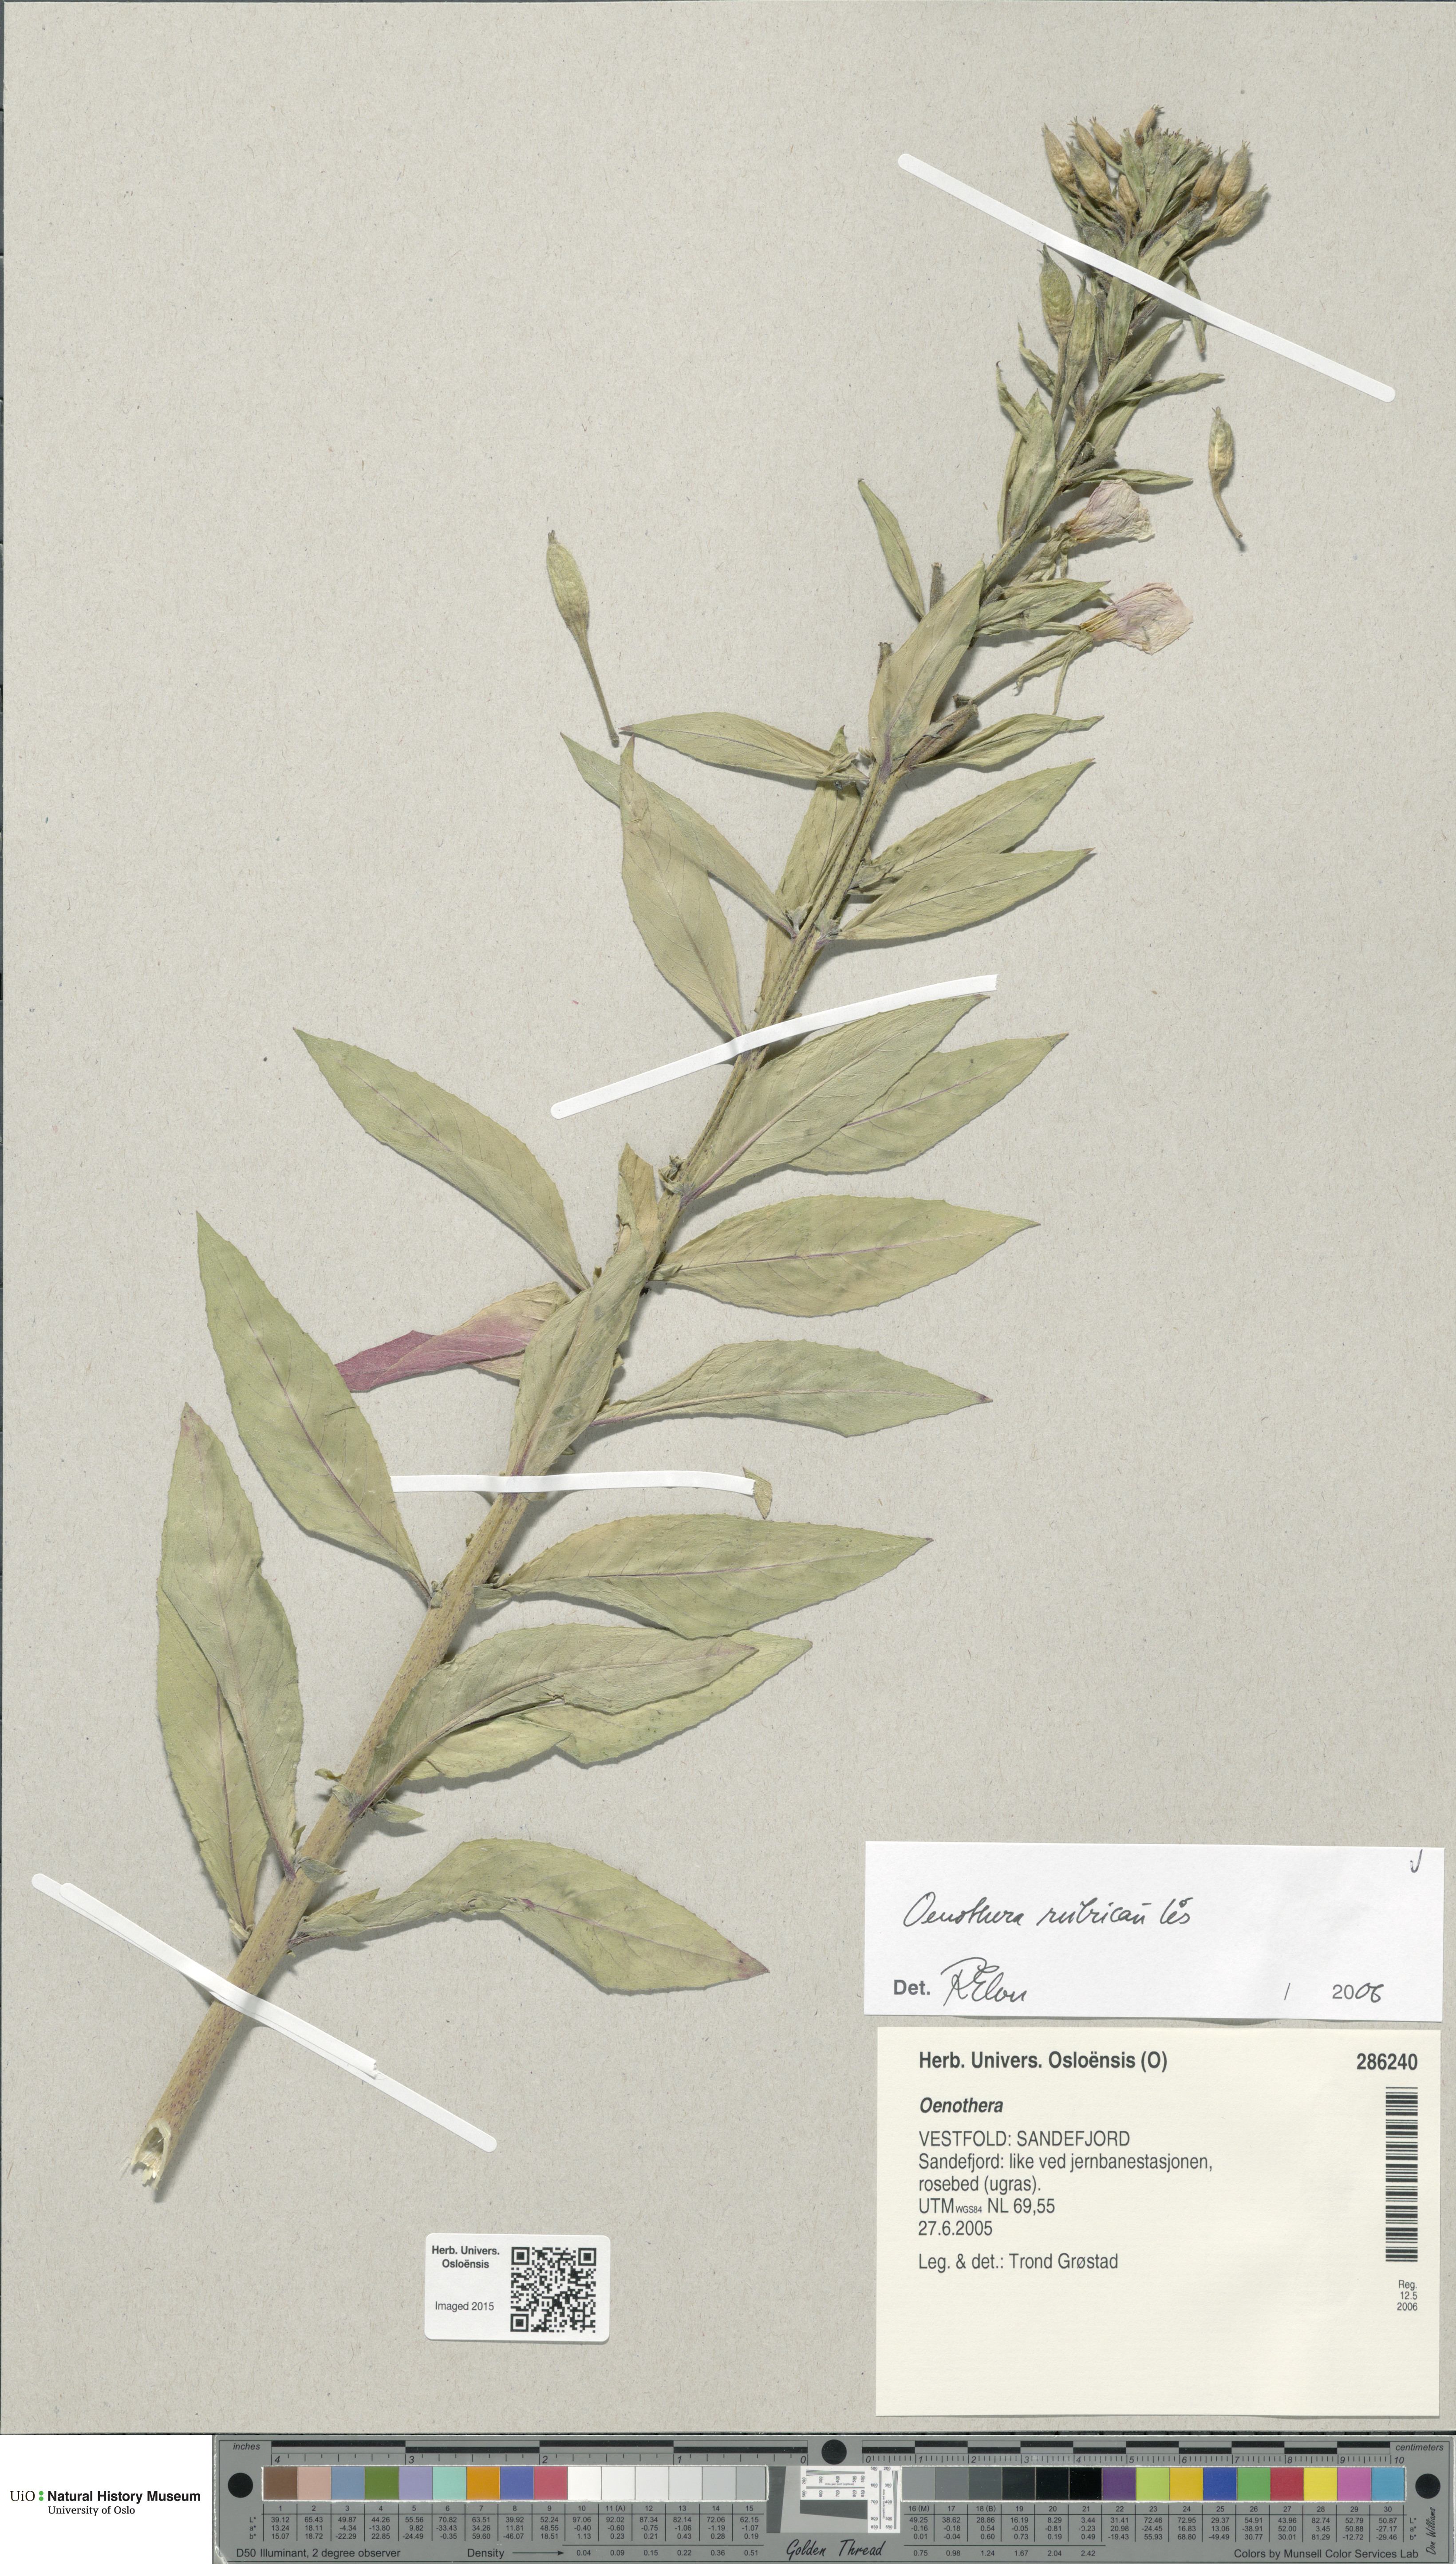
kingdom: Plantae
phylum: Tracheophyta
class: Magnoliopsida
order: Myrtales
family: Onagraceae
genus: Oenothera
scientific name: Oenothera biennis
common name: Common evening-primrose
